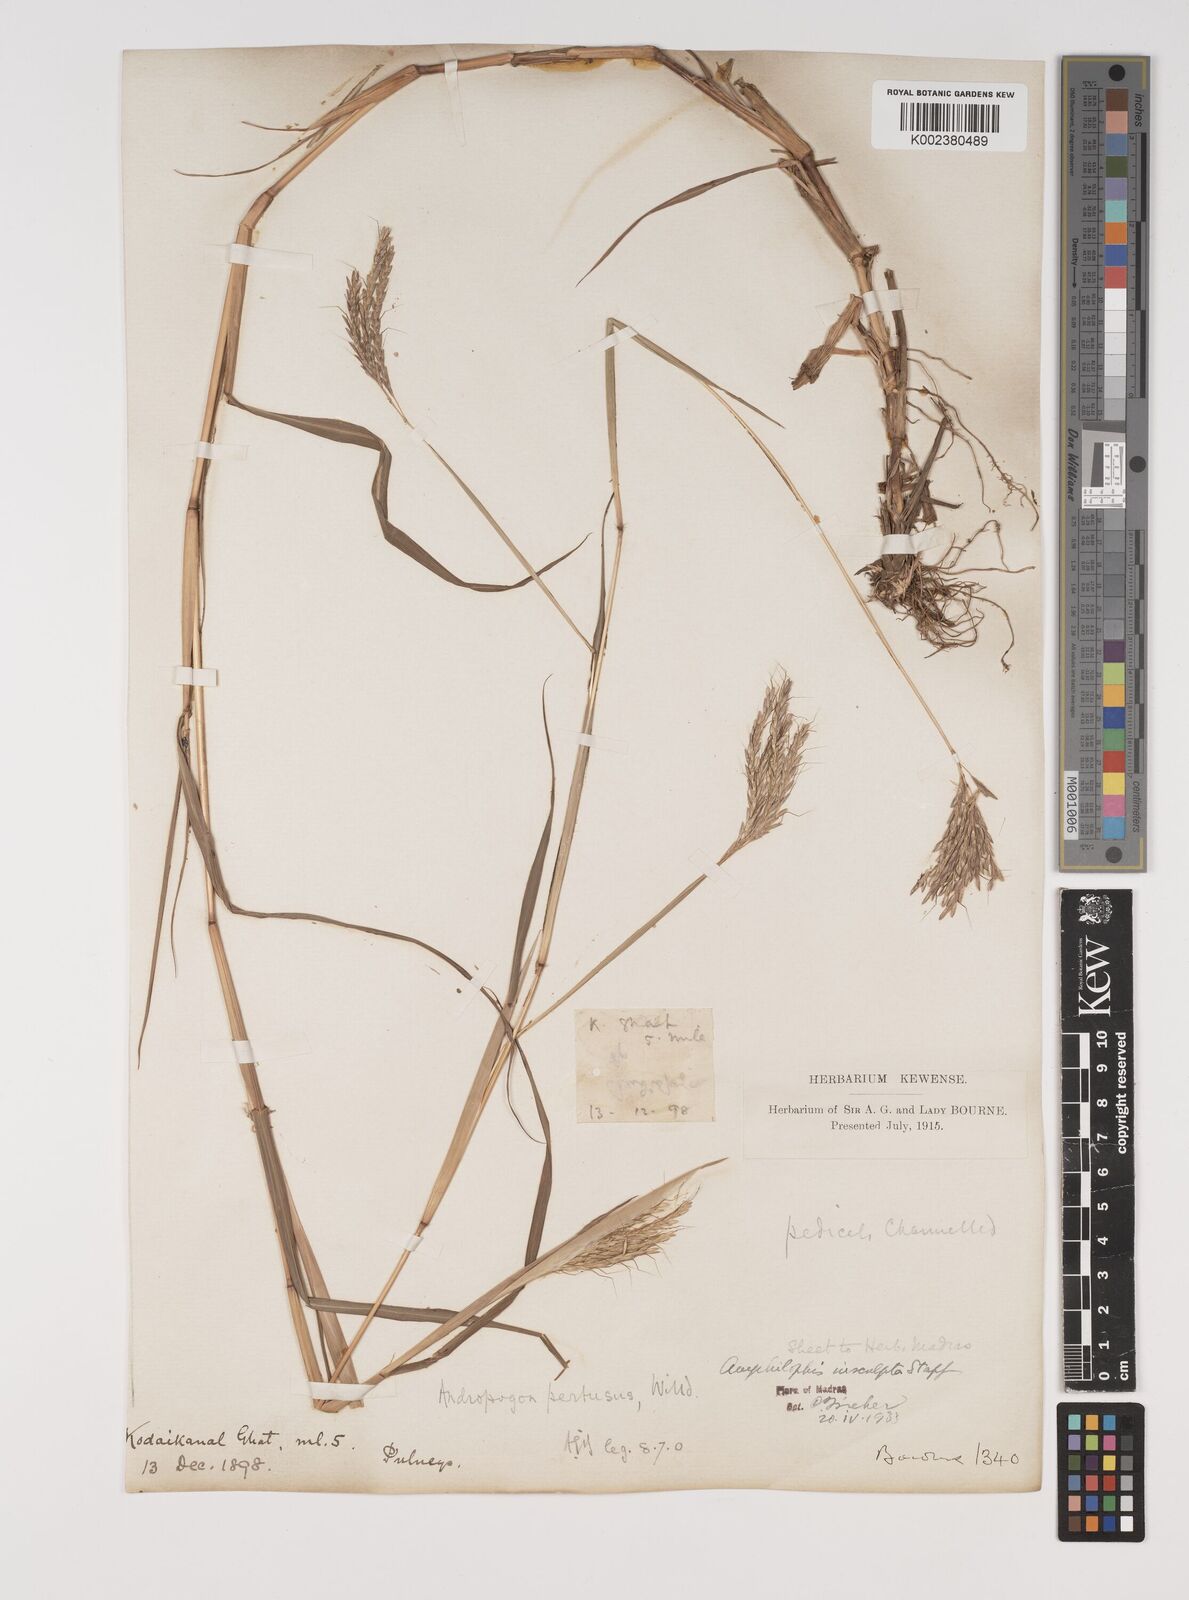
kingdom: Plantae
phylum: Tracheophyta
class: Liliopsida
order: Poales
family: Poaceae
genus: Bothriochloa
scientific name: Bothriochloa insculpta
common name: Creeping-bluegrass
